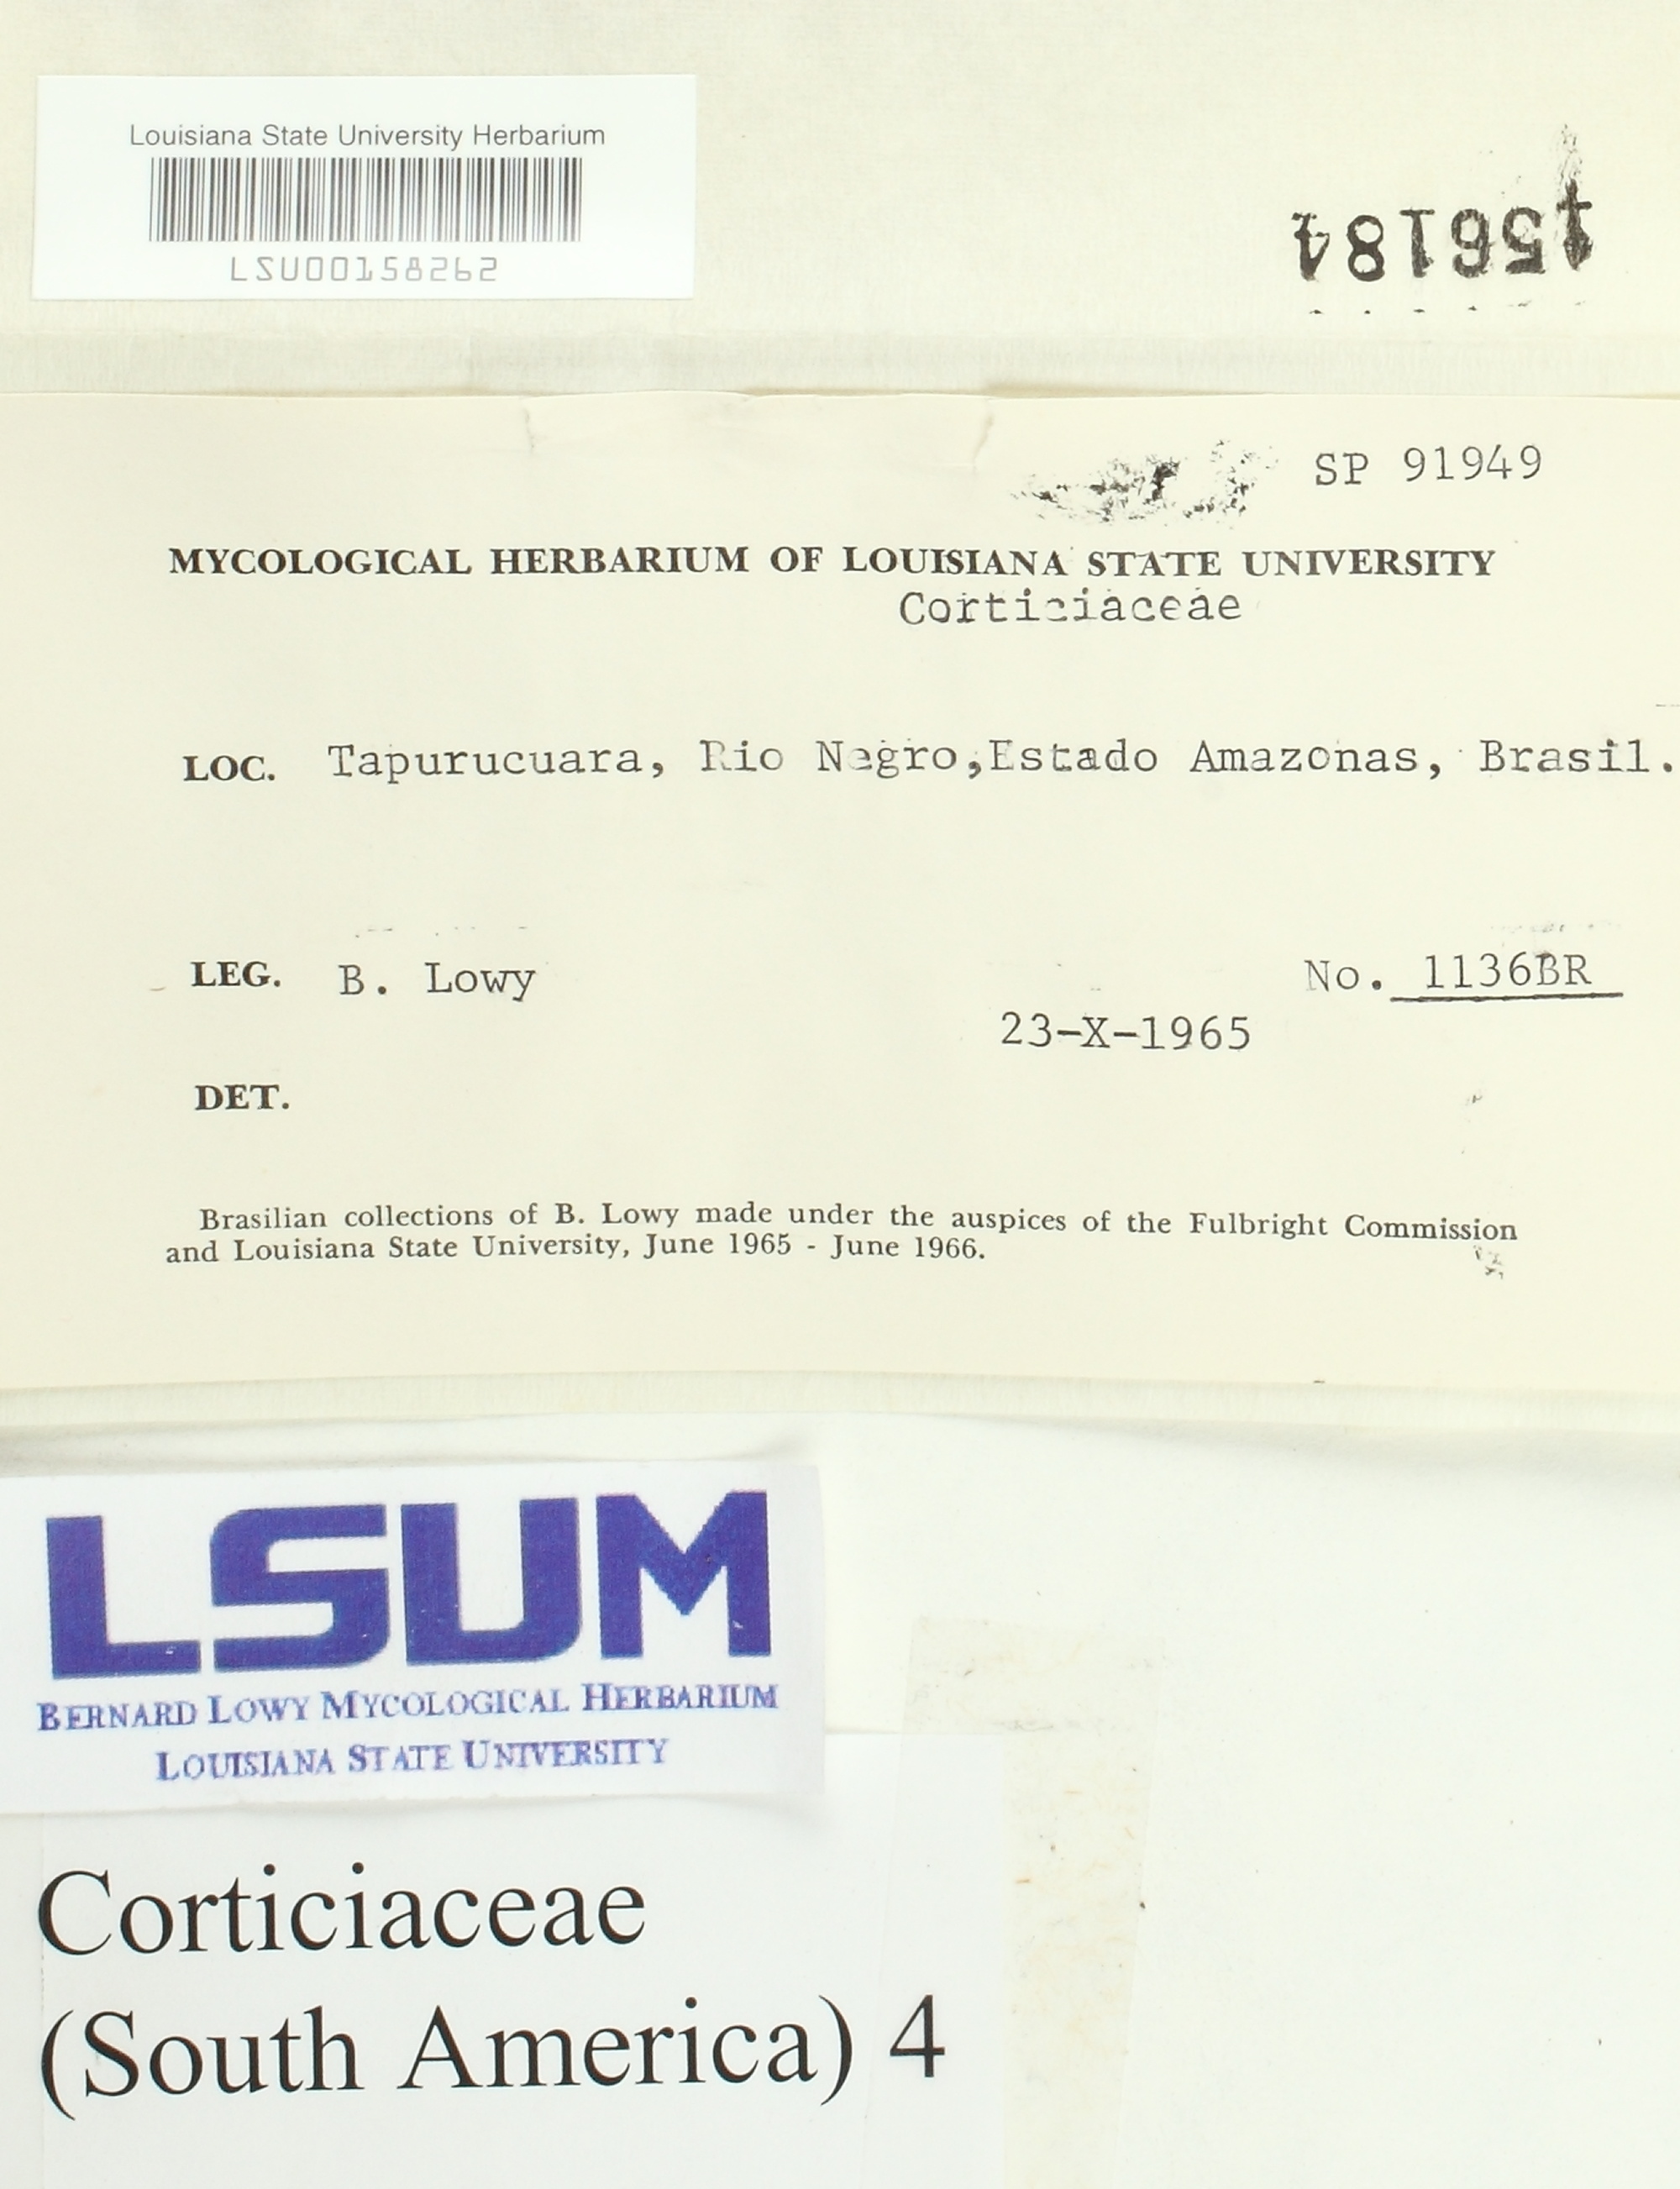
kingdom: Fungi
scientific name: Fungi
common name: Fungi
